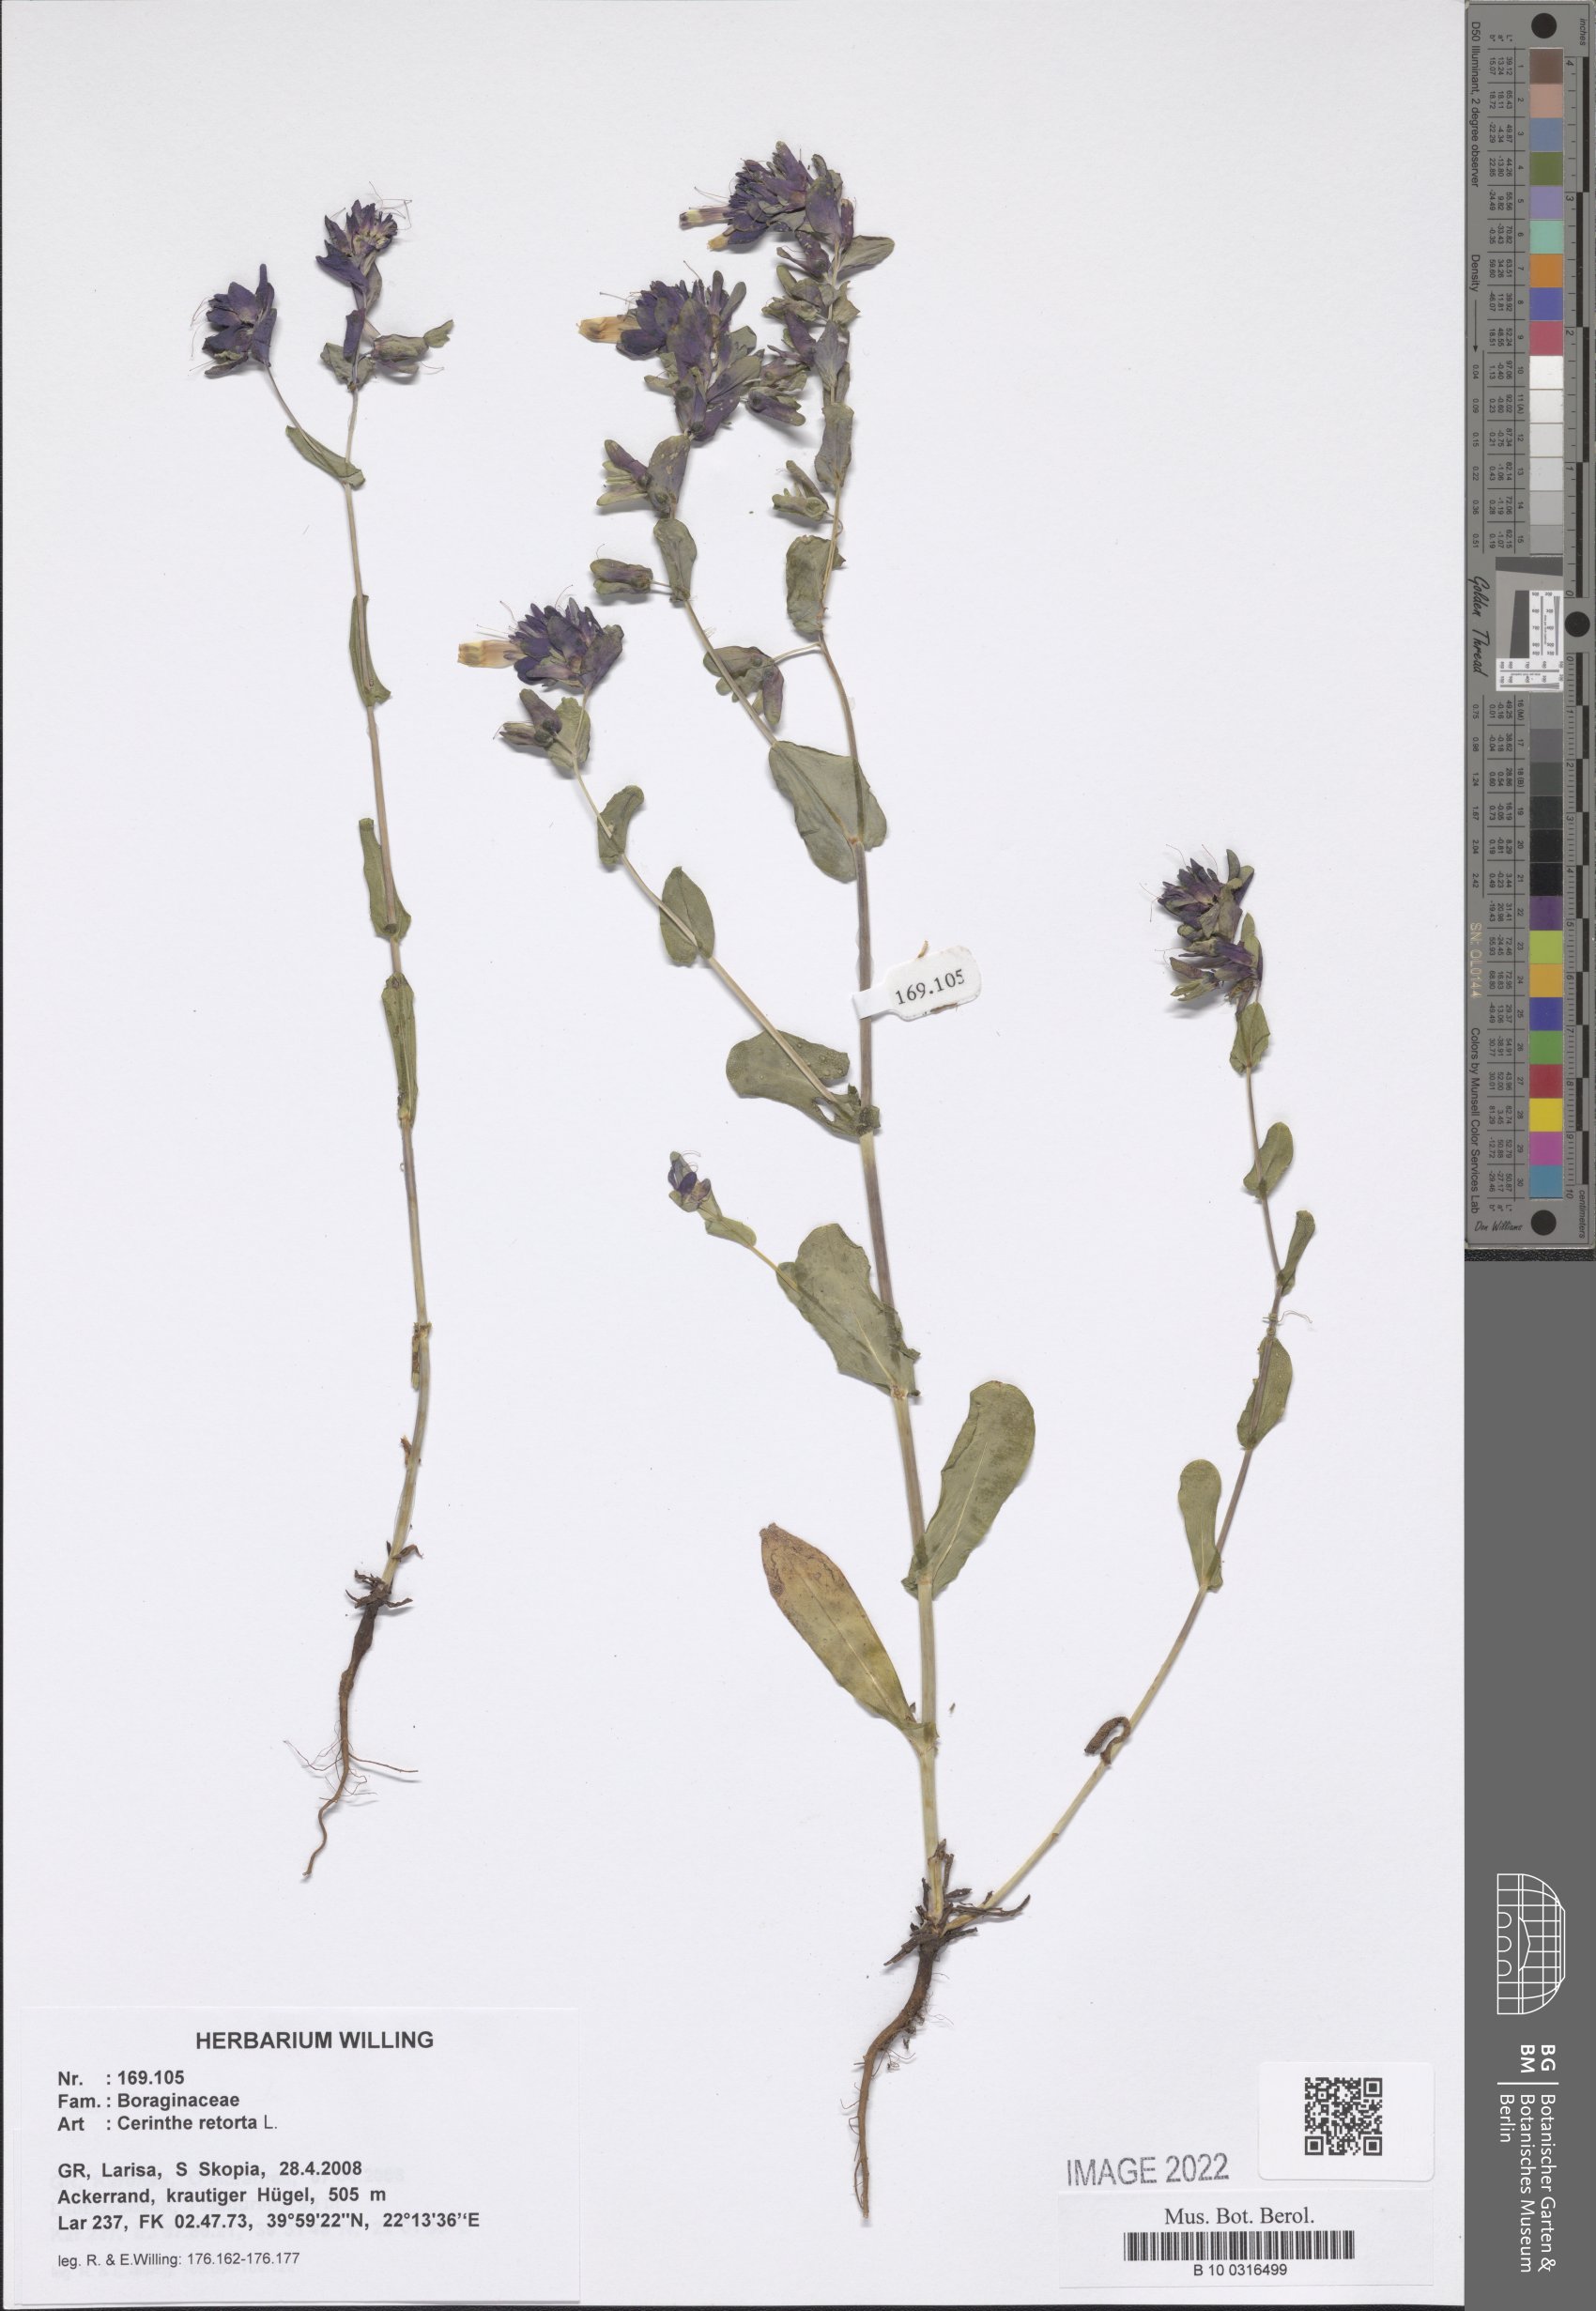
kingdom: Plantae
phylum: Tracheophyta
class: Magnoliopsida
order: Boraginales
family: Boraginaceae
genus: Cerinthe
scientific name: Cerinthe retorta
